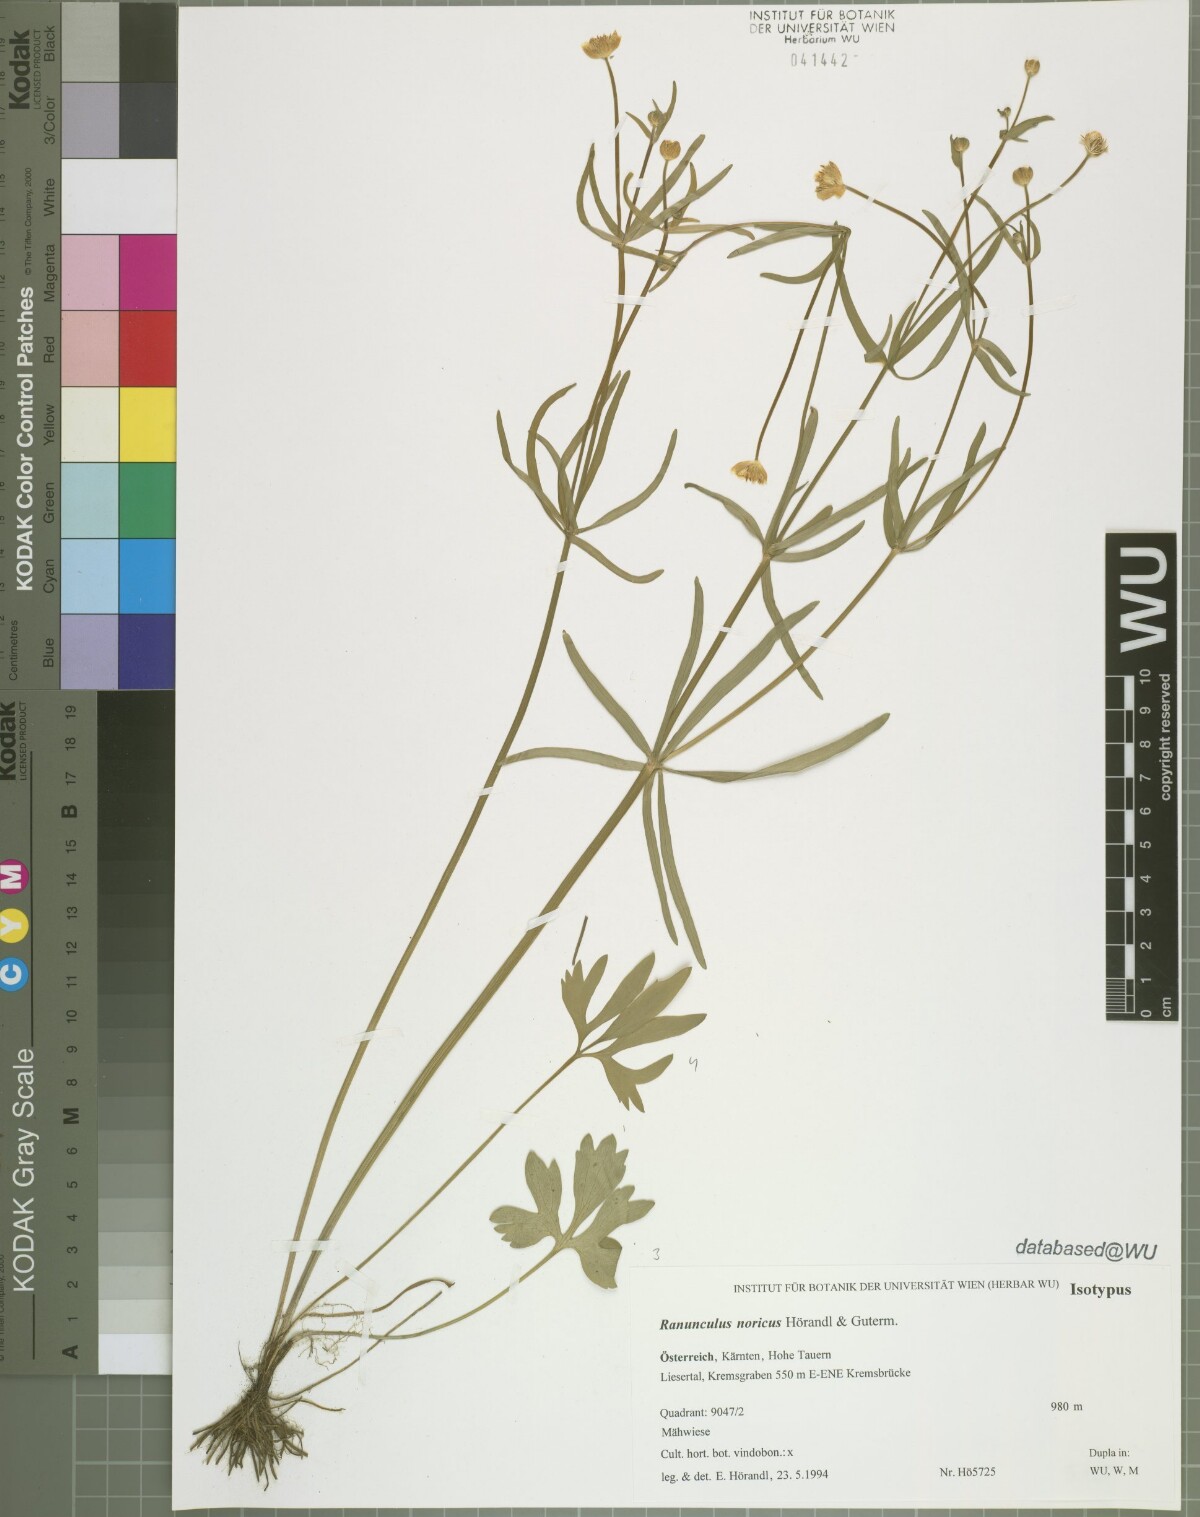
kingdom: Plantae
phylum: Tracheophyta
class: Magnoliopsida
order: Ranunculales
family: Ranunculaceae
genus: Ranunculus
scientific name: Ranunculus noricus
